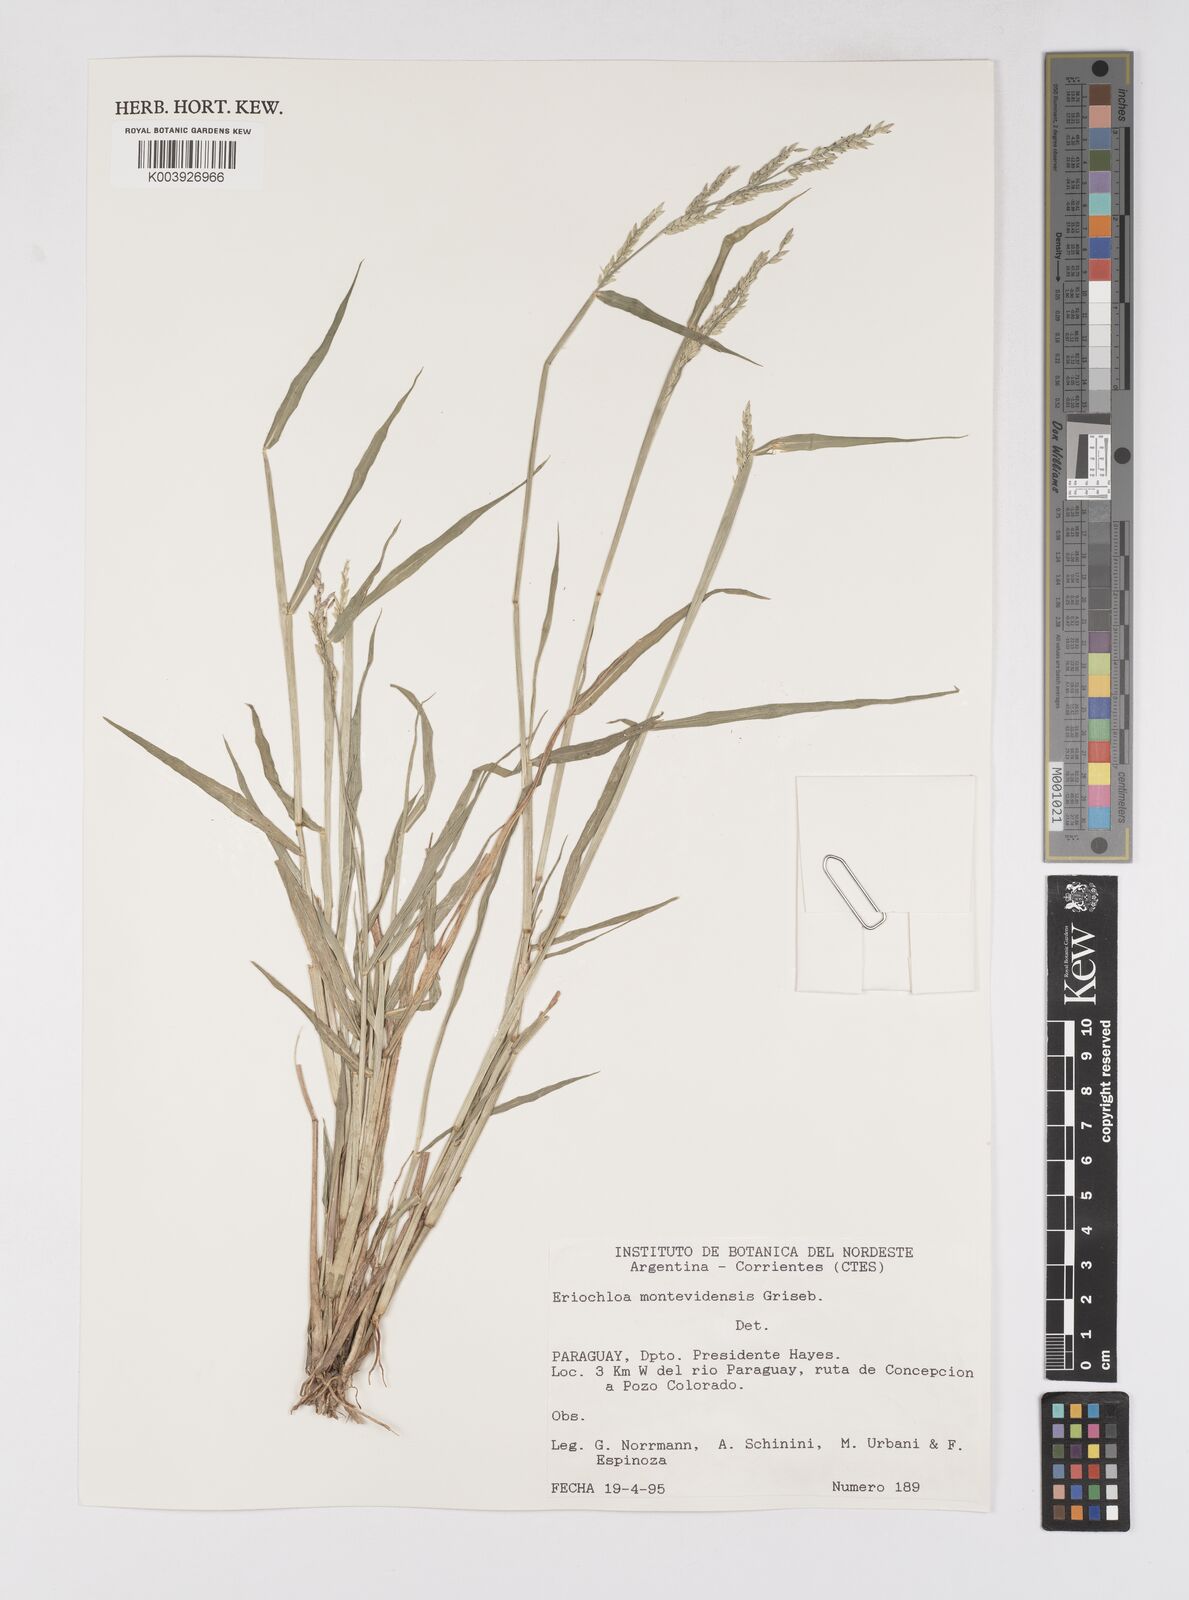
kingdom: Plantae
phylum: Tracheophyta
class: Liliopsida
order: Poales
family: Poaceae
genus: Eriochloa
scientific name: Eriochloa punctata
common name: Louisiana cupgrass
